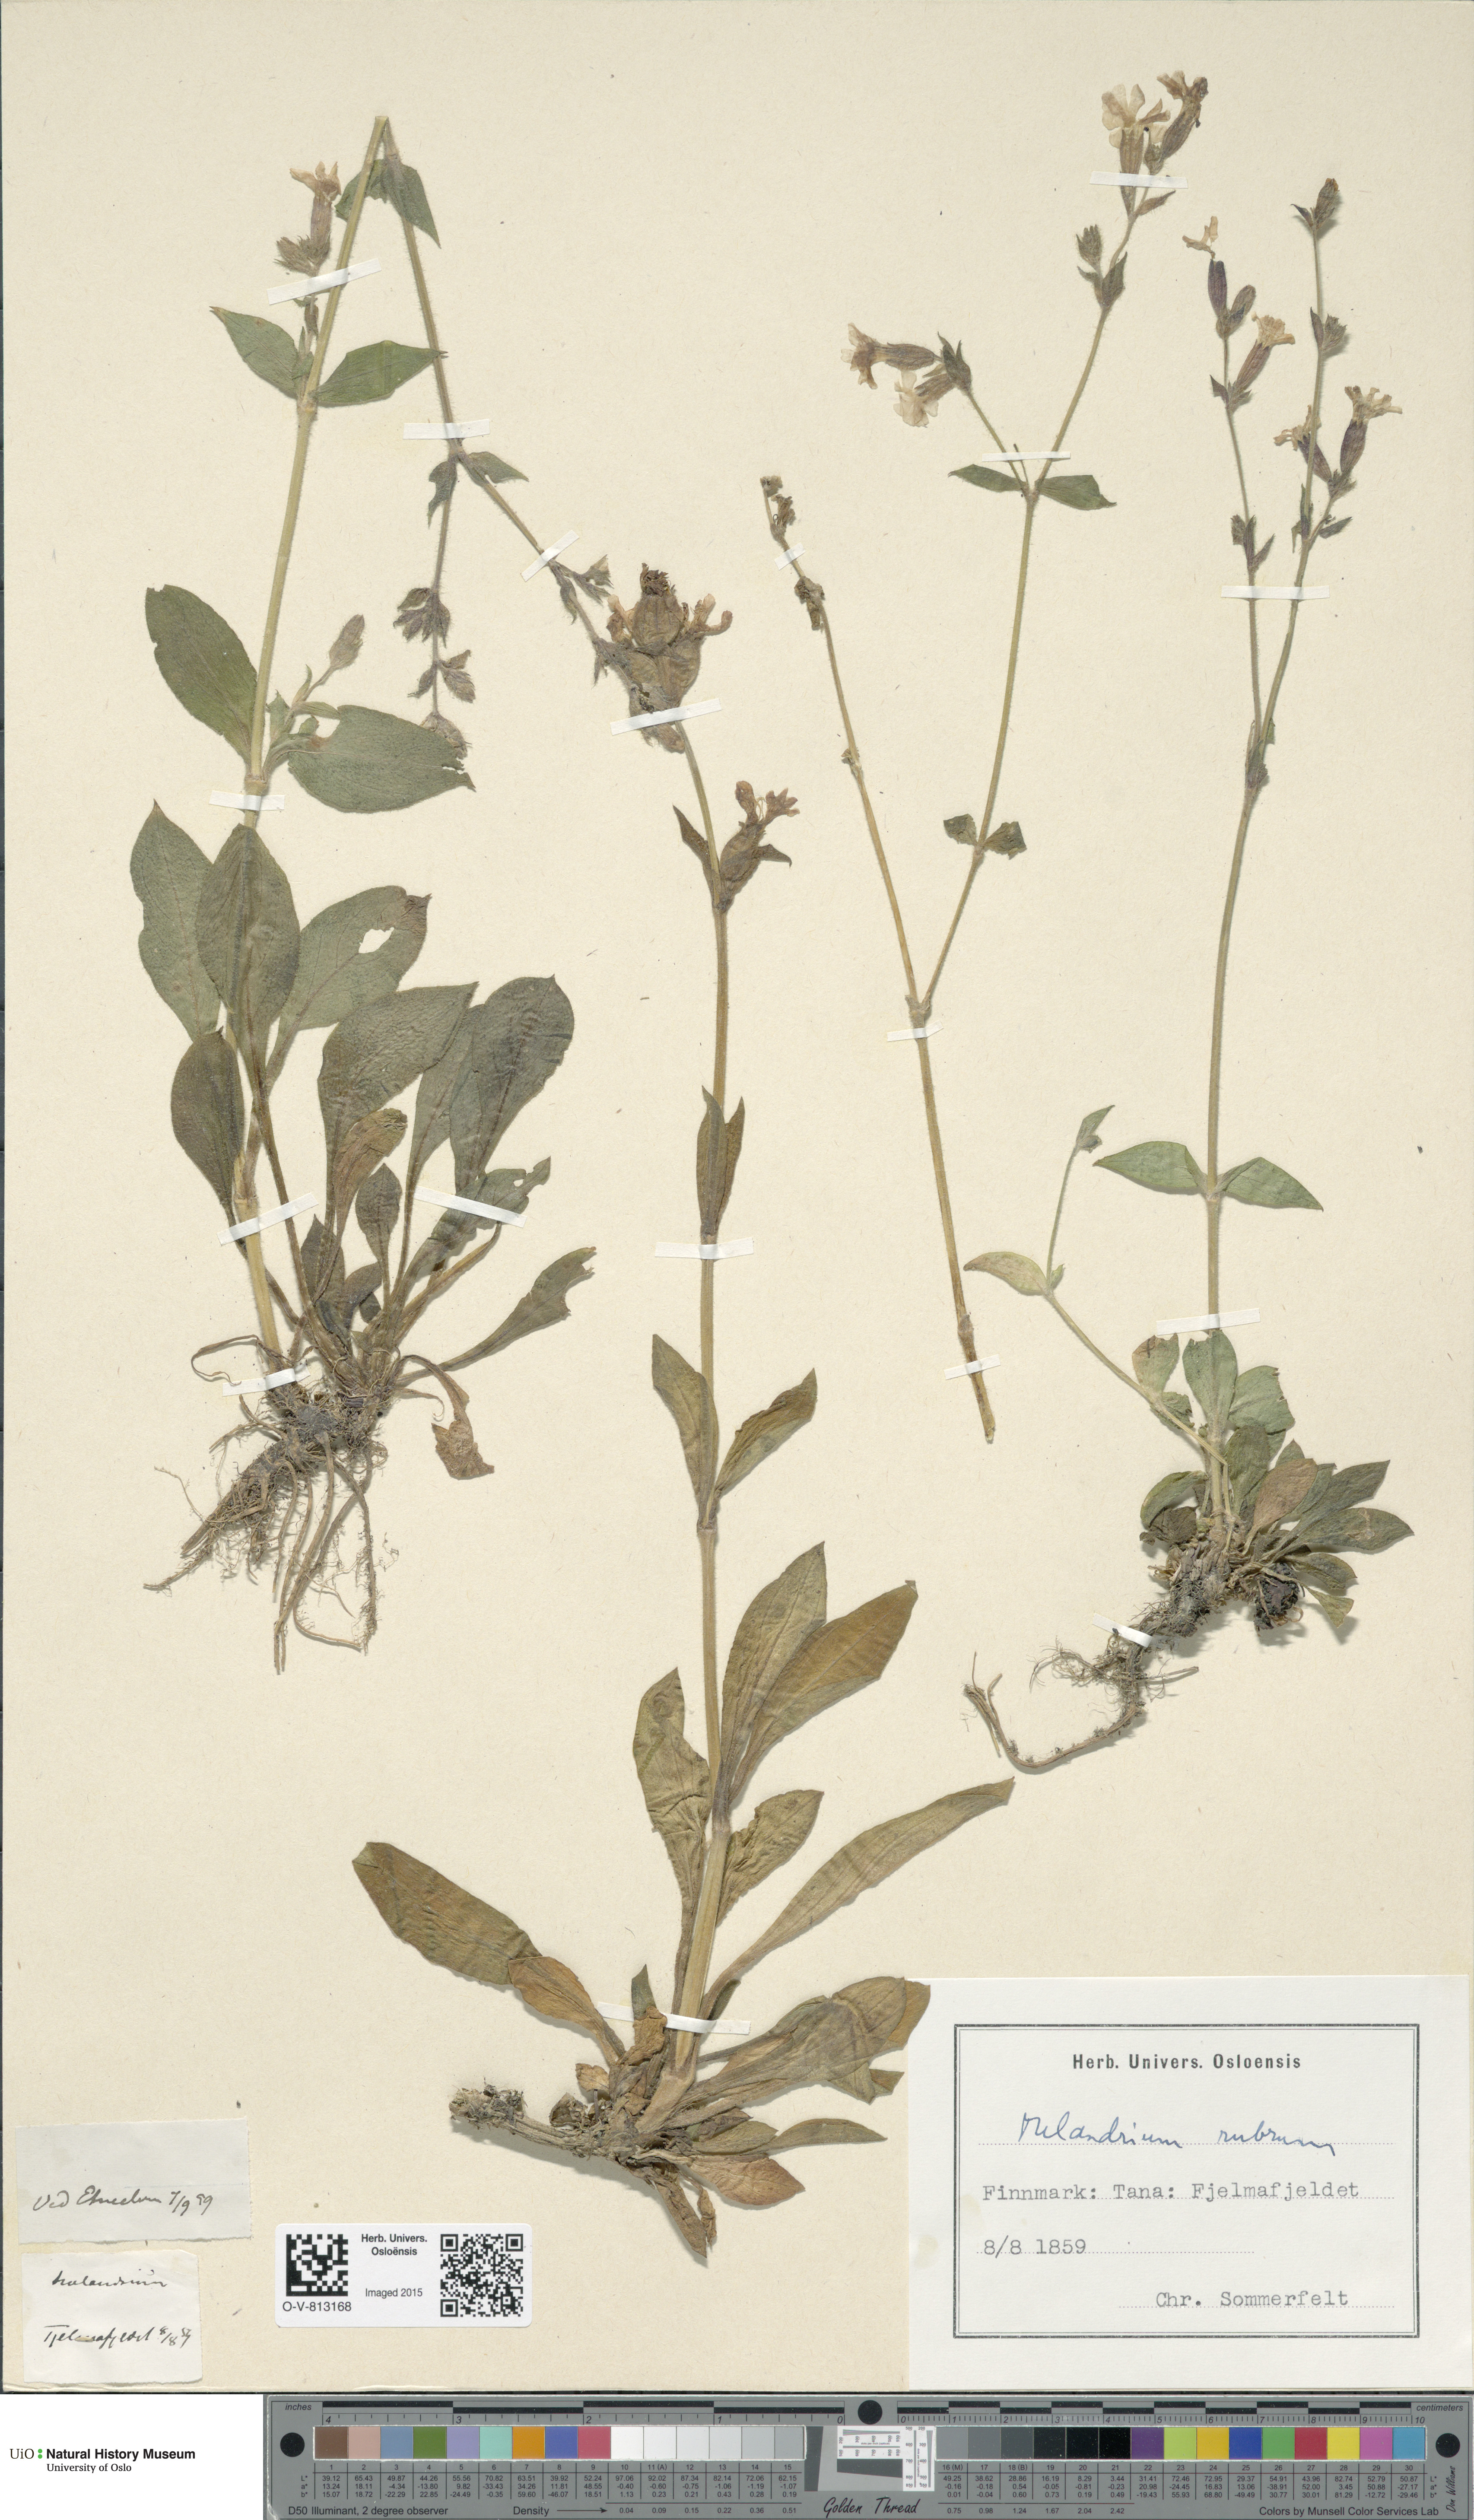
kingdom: Plantae
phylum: Tracheophyta
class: Magnoliopsida
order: Caryophyllales
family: Caryophyllaceae
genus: Silene
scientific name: Silene dioica
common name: Red campion
